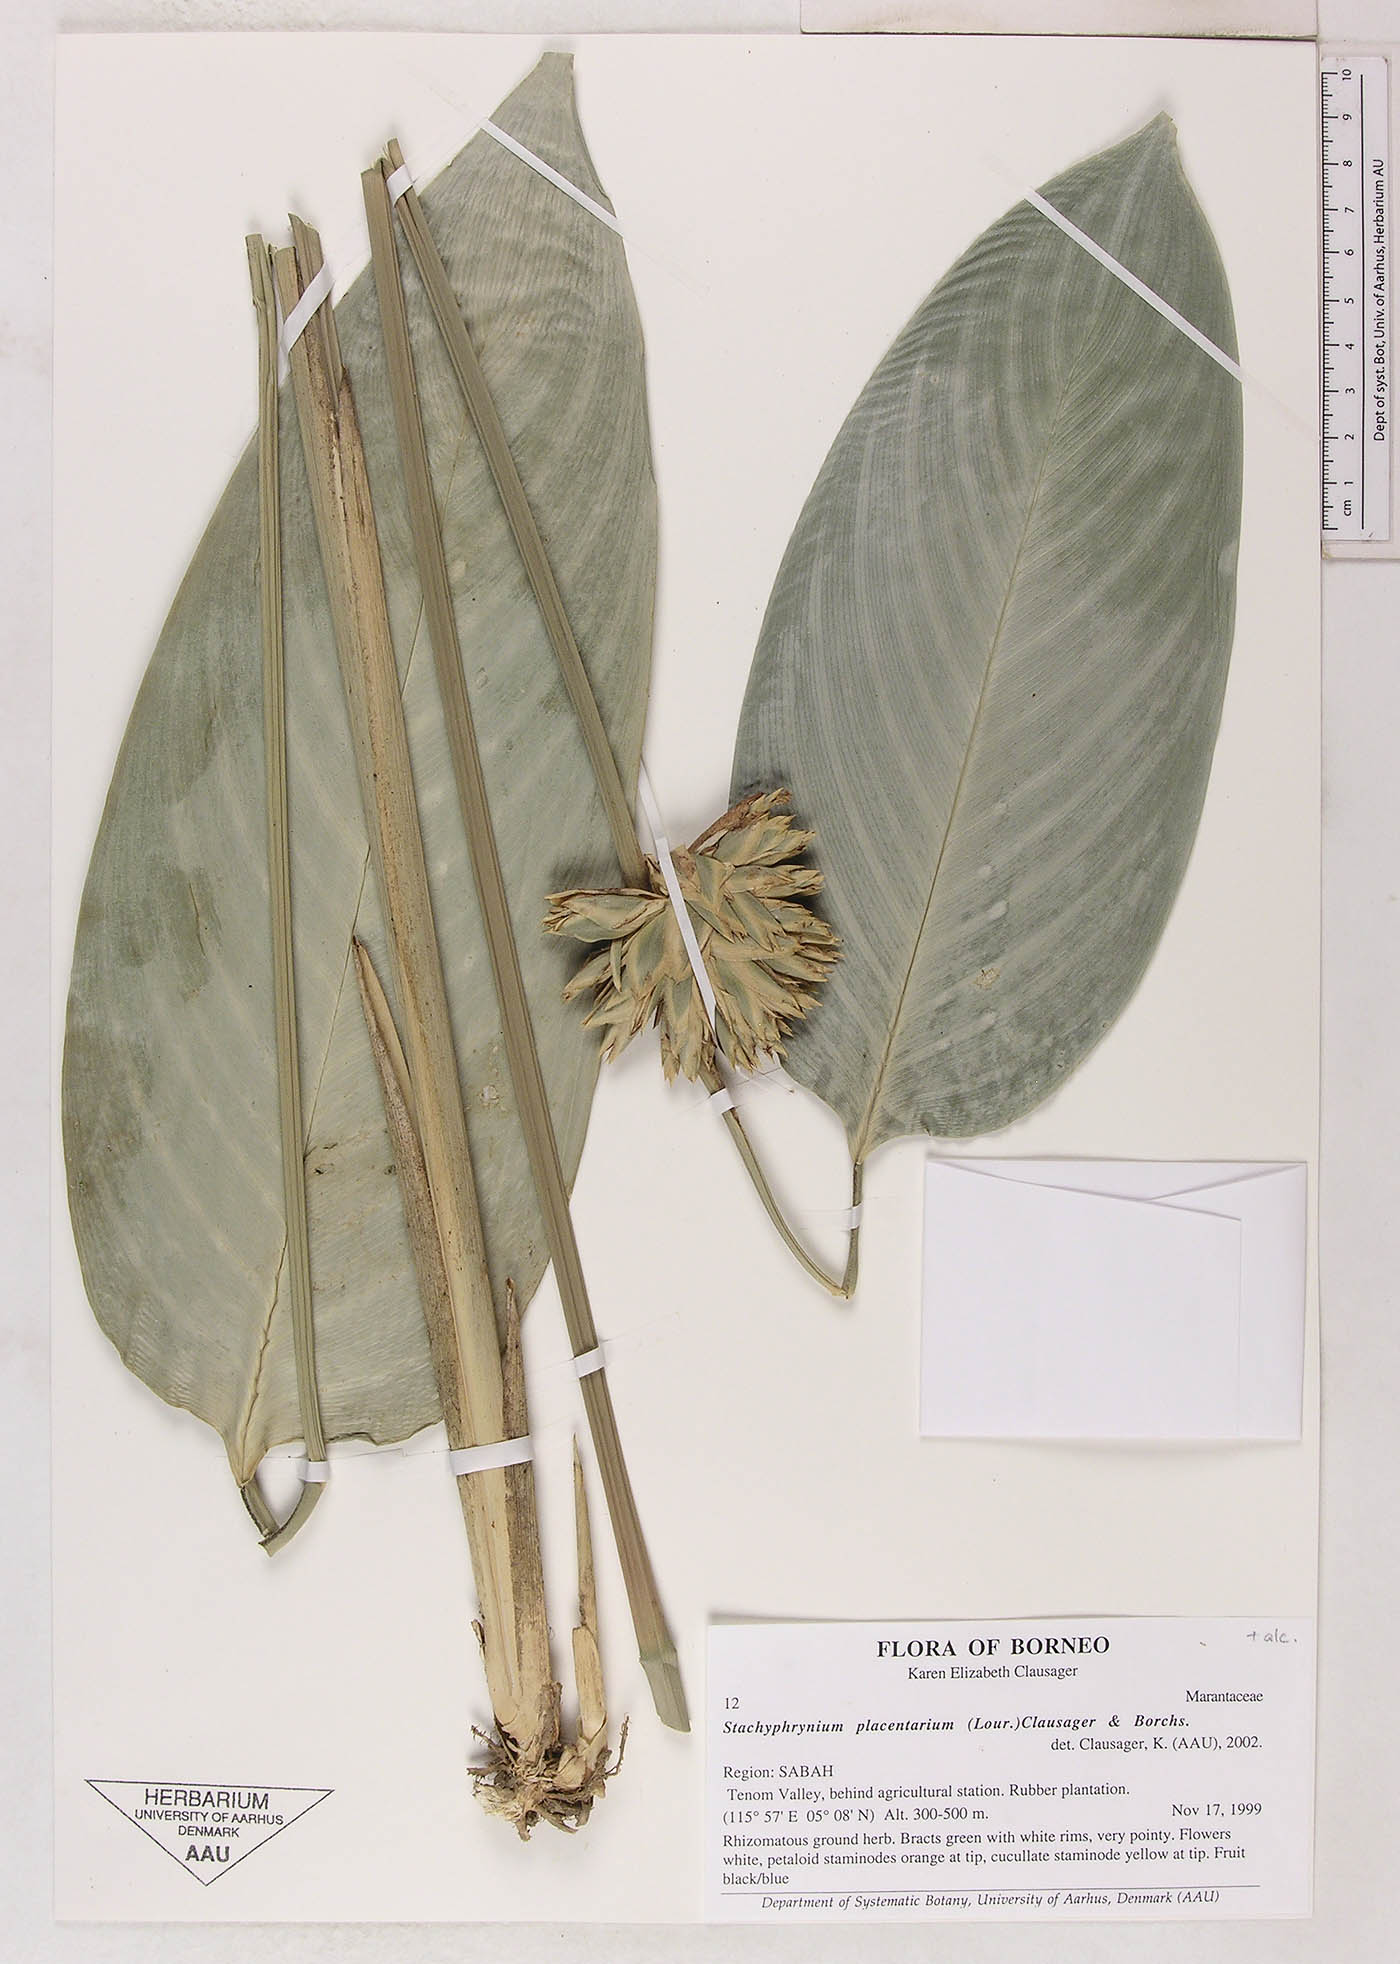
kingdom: Plantae
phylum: Tracheophyta
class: Liliopsida
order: Zingiberales
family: Marantaceae
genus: Stachyphrynium
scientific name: Stachyphrynium placentarium
